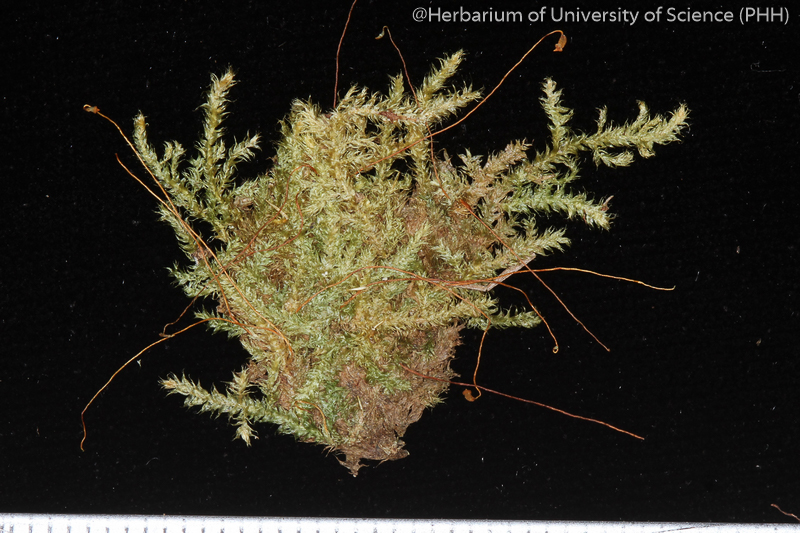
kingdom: Plantae
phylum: Bryophyta
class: Bryopsida
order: Hypnales
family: Hypnaceae
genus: Vesicularia
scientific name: Vesicularia reticulata
